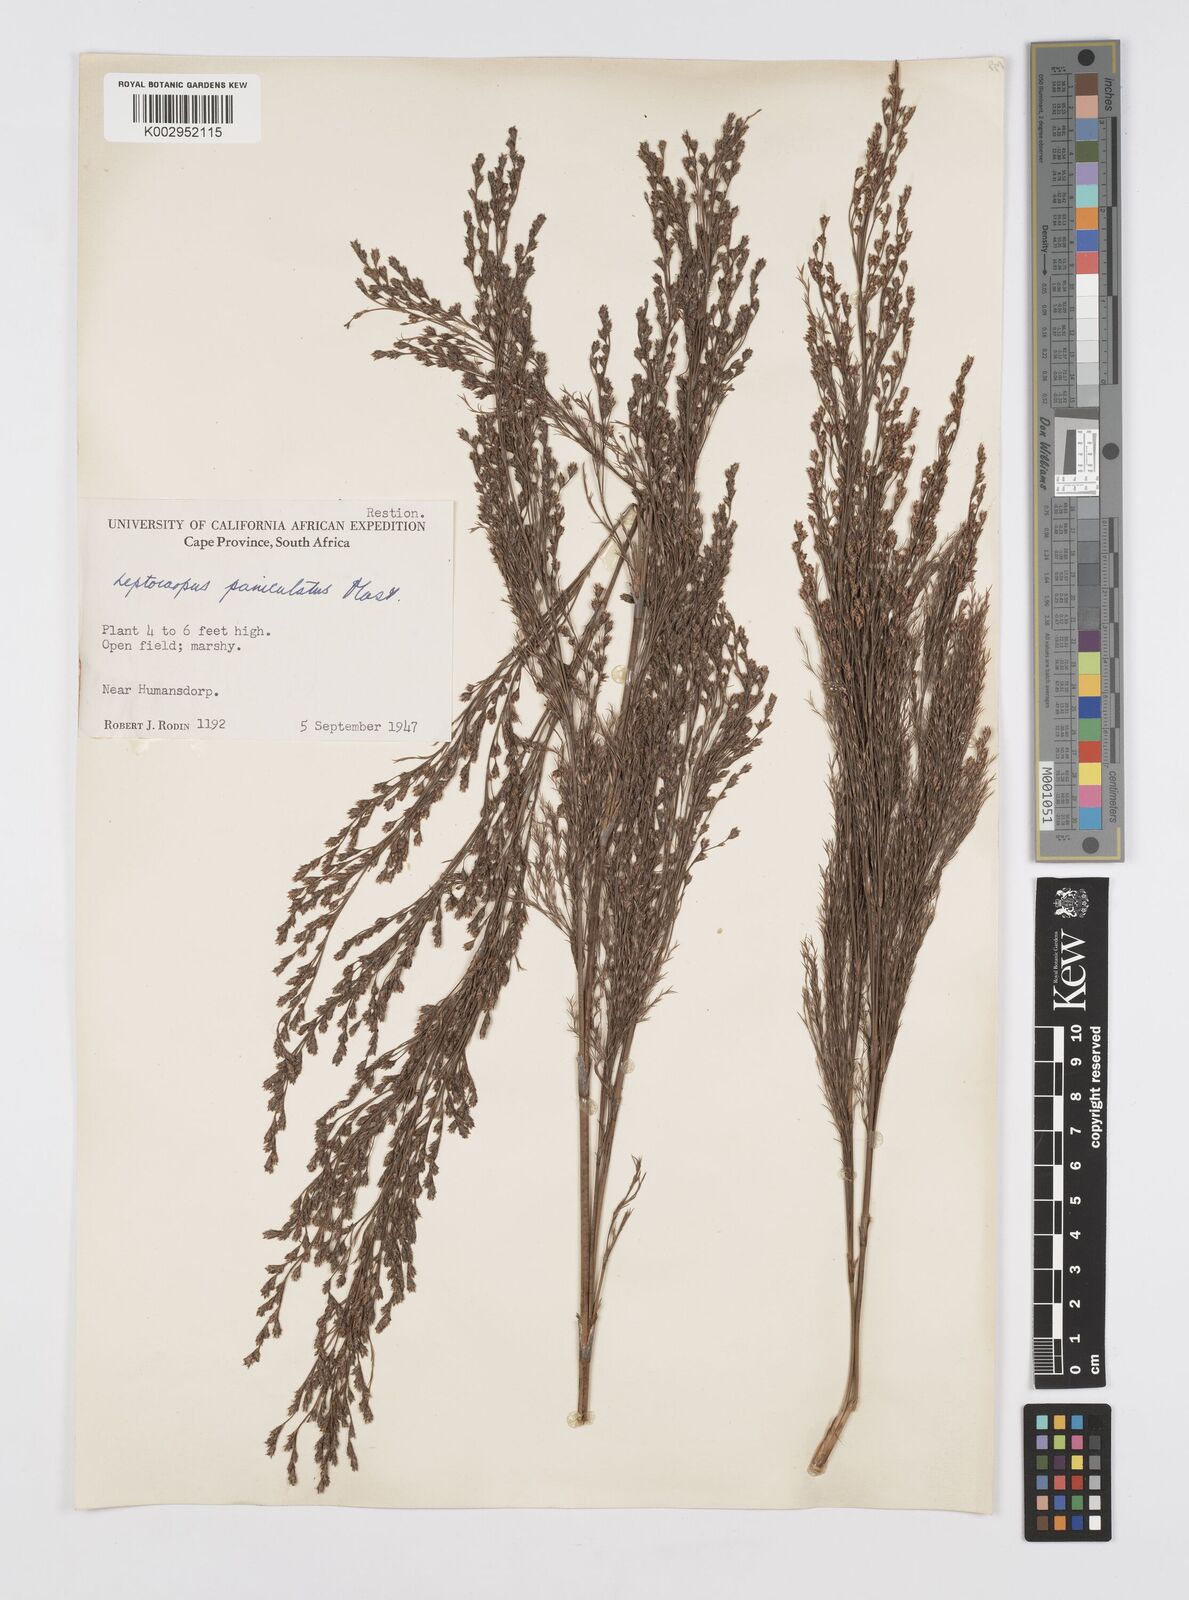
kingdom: Plantae
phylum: Tracheophyta
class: Liliopsida
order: Poales
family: Restionaceae
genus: Restio
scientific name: Restio paniculatus
